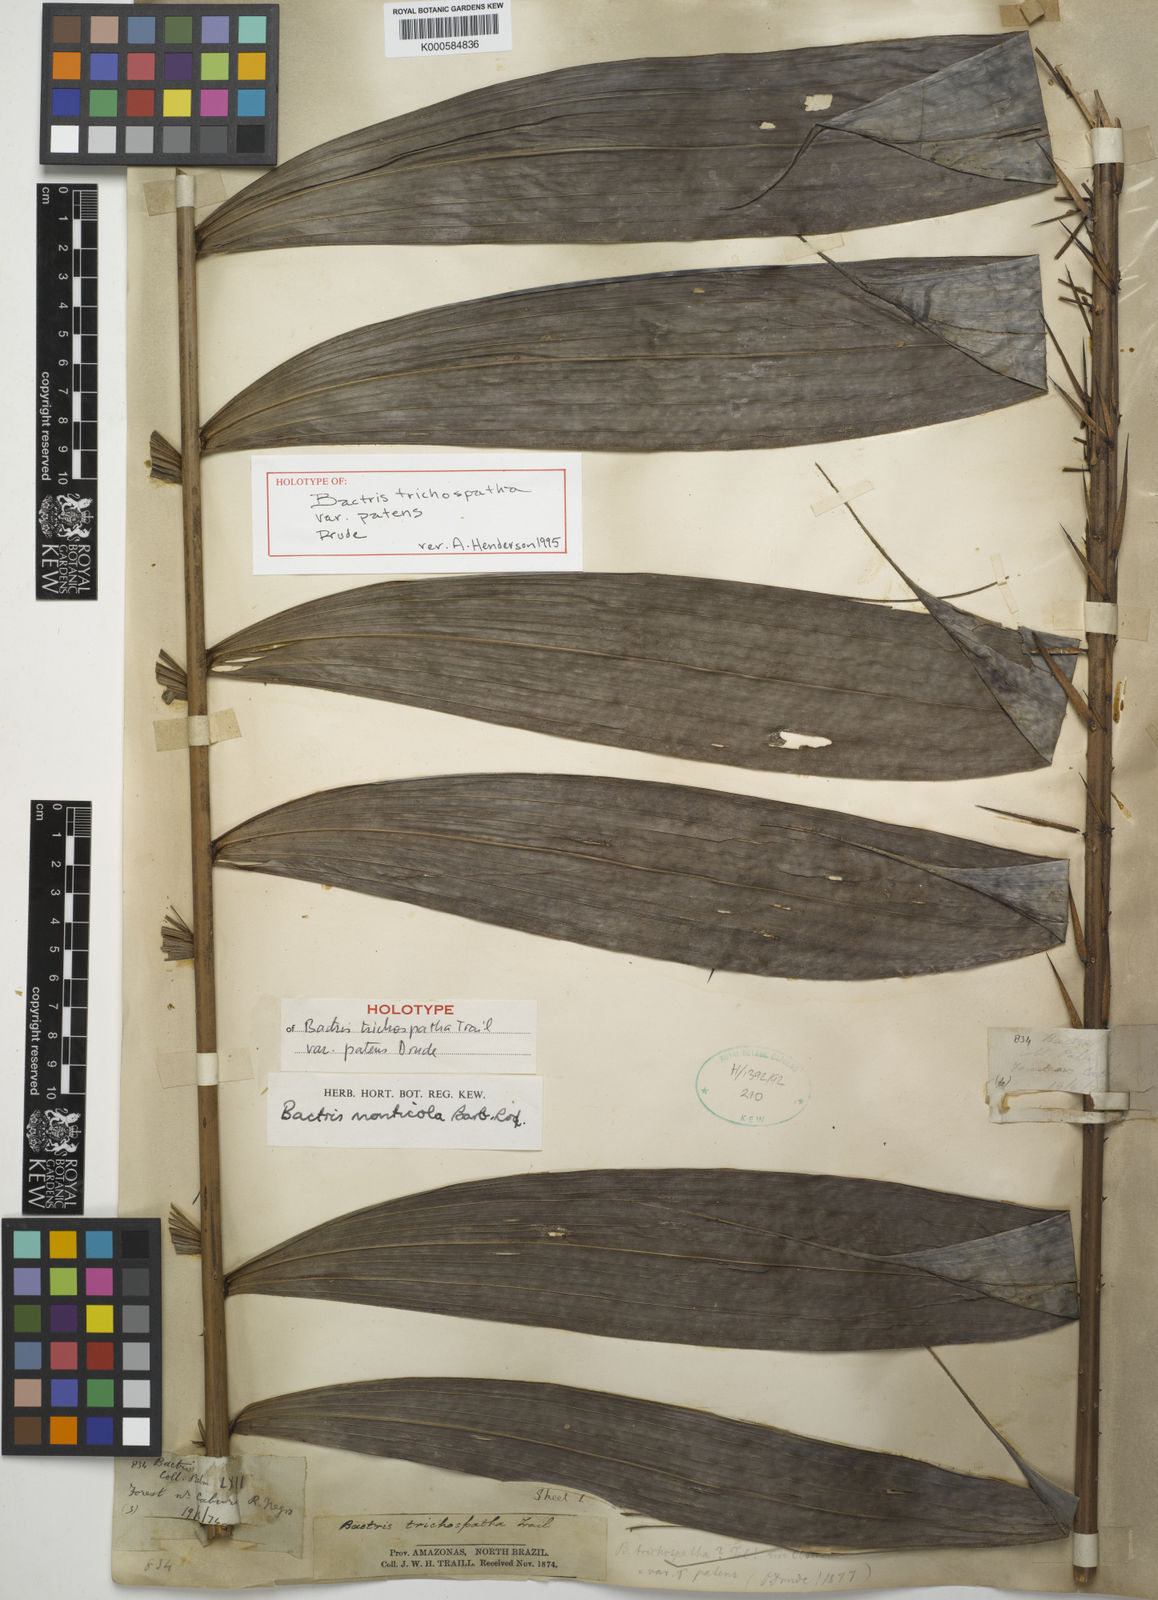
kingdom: Plantae
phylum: Tracheophyta
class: Liliopsida
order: Arecales
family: Arecaceae
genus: Bactris
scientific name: Bactris maraja
